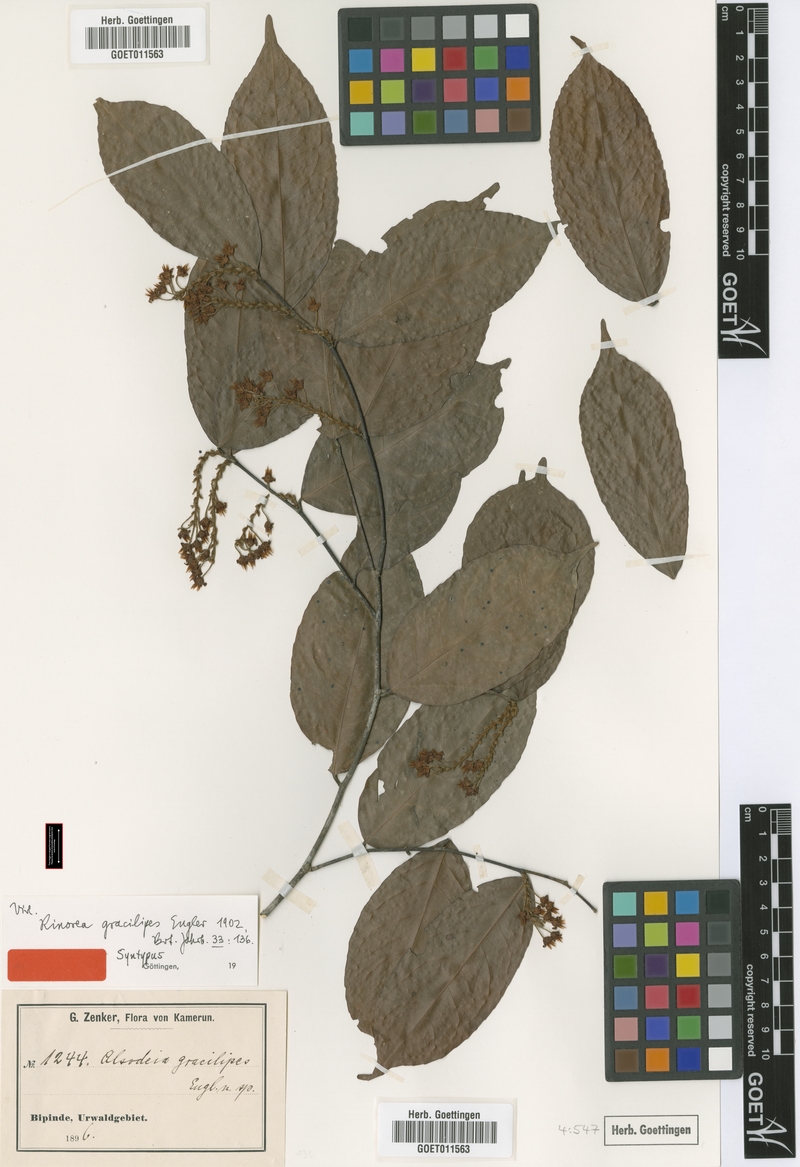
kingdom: Plantae
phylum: Tracheophyta
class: Magnoliopsida
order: Malpighiales
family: Violaceae
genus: Rinorea
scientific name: Rinorea angustifolia
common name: White violet-bush
